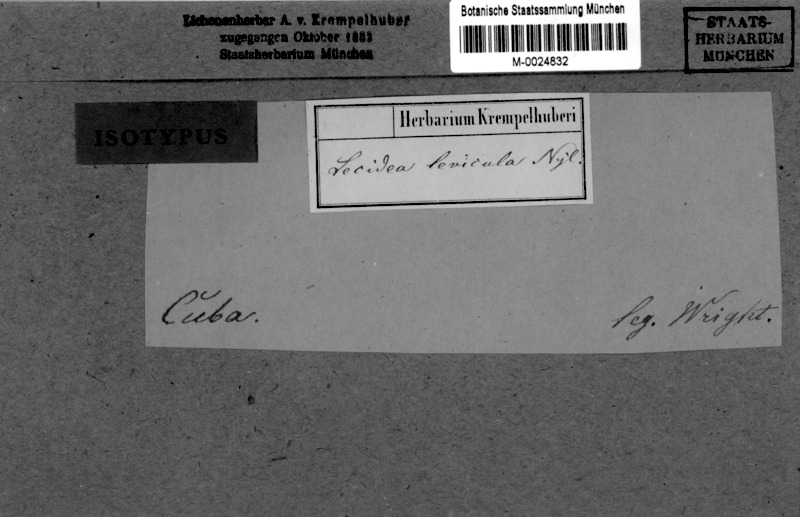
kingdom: Fungi
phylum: Ascomycota
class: Lecanoromycetes
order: Lecanorales
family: Byssolomataceae
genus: Micarea
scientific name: Micarea levicula
